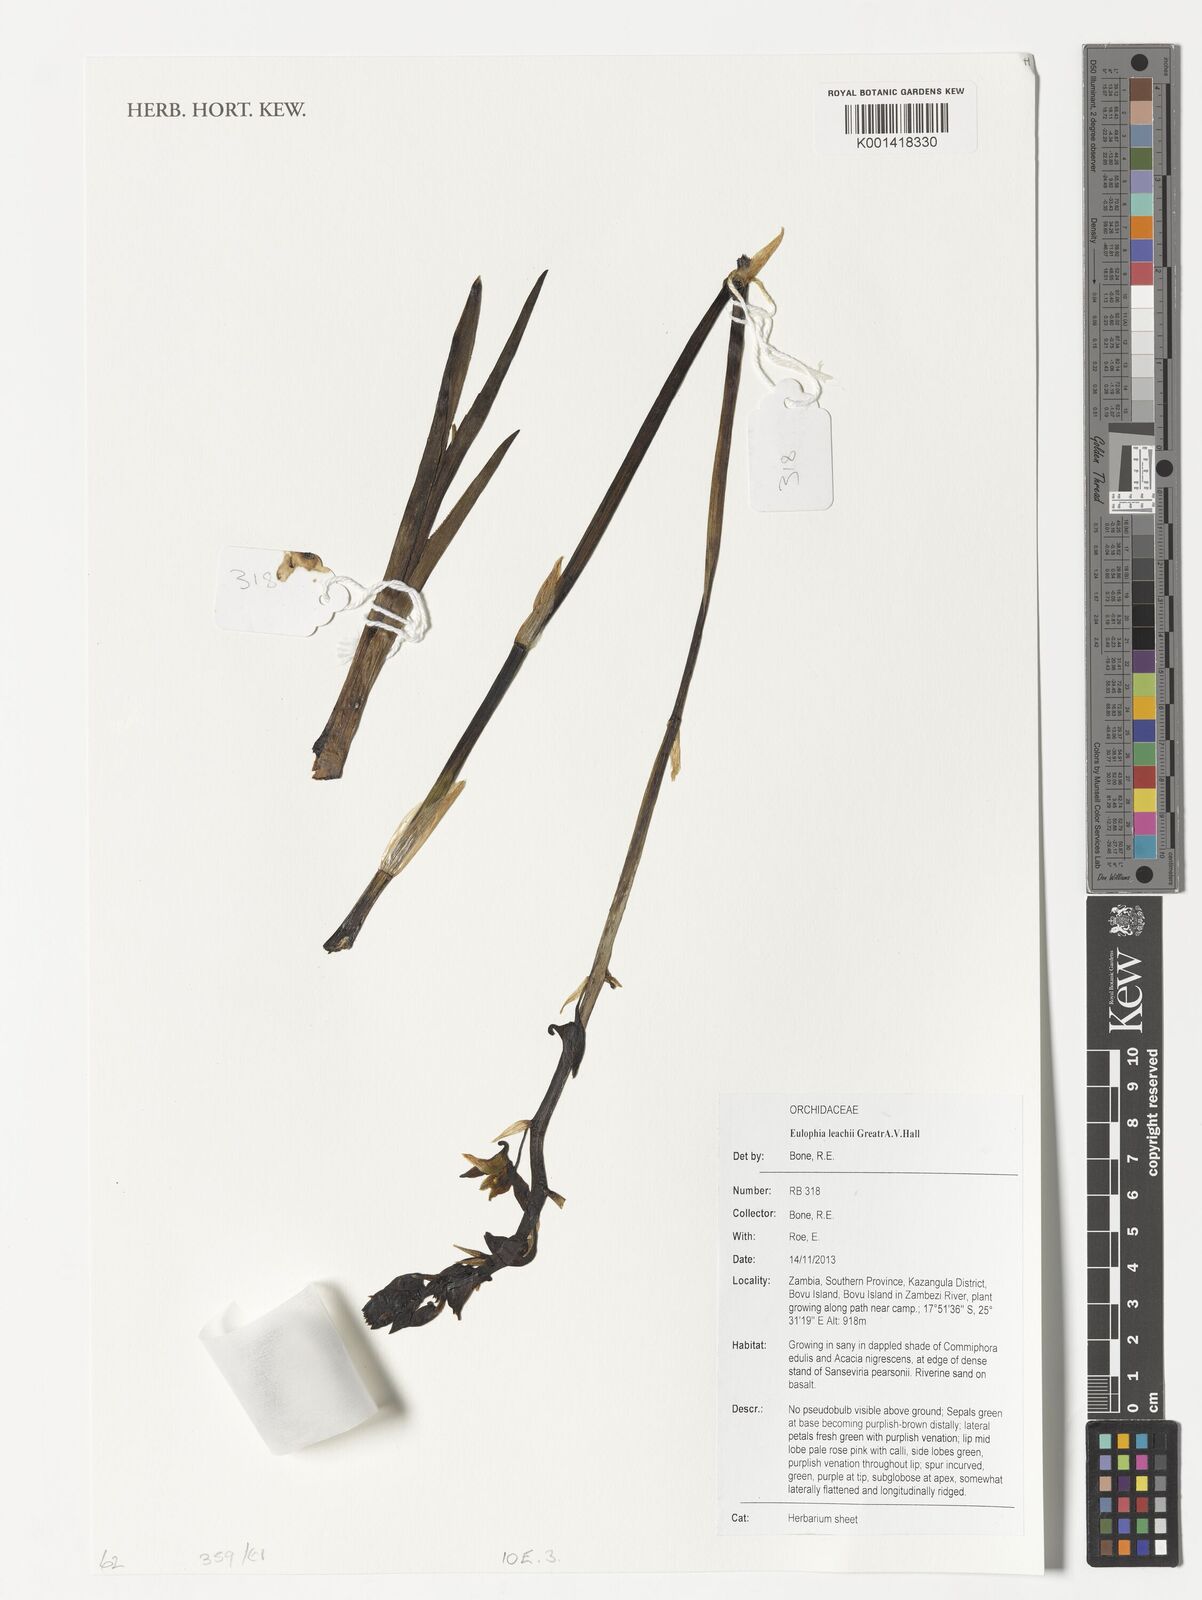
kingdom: Plantae
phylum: Tracheophyta
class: Liliopsida
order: Asparagales
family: Orchidaceae
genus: Eulophia
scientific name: Eulophia leachii
